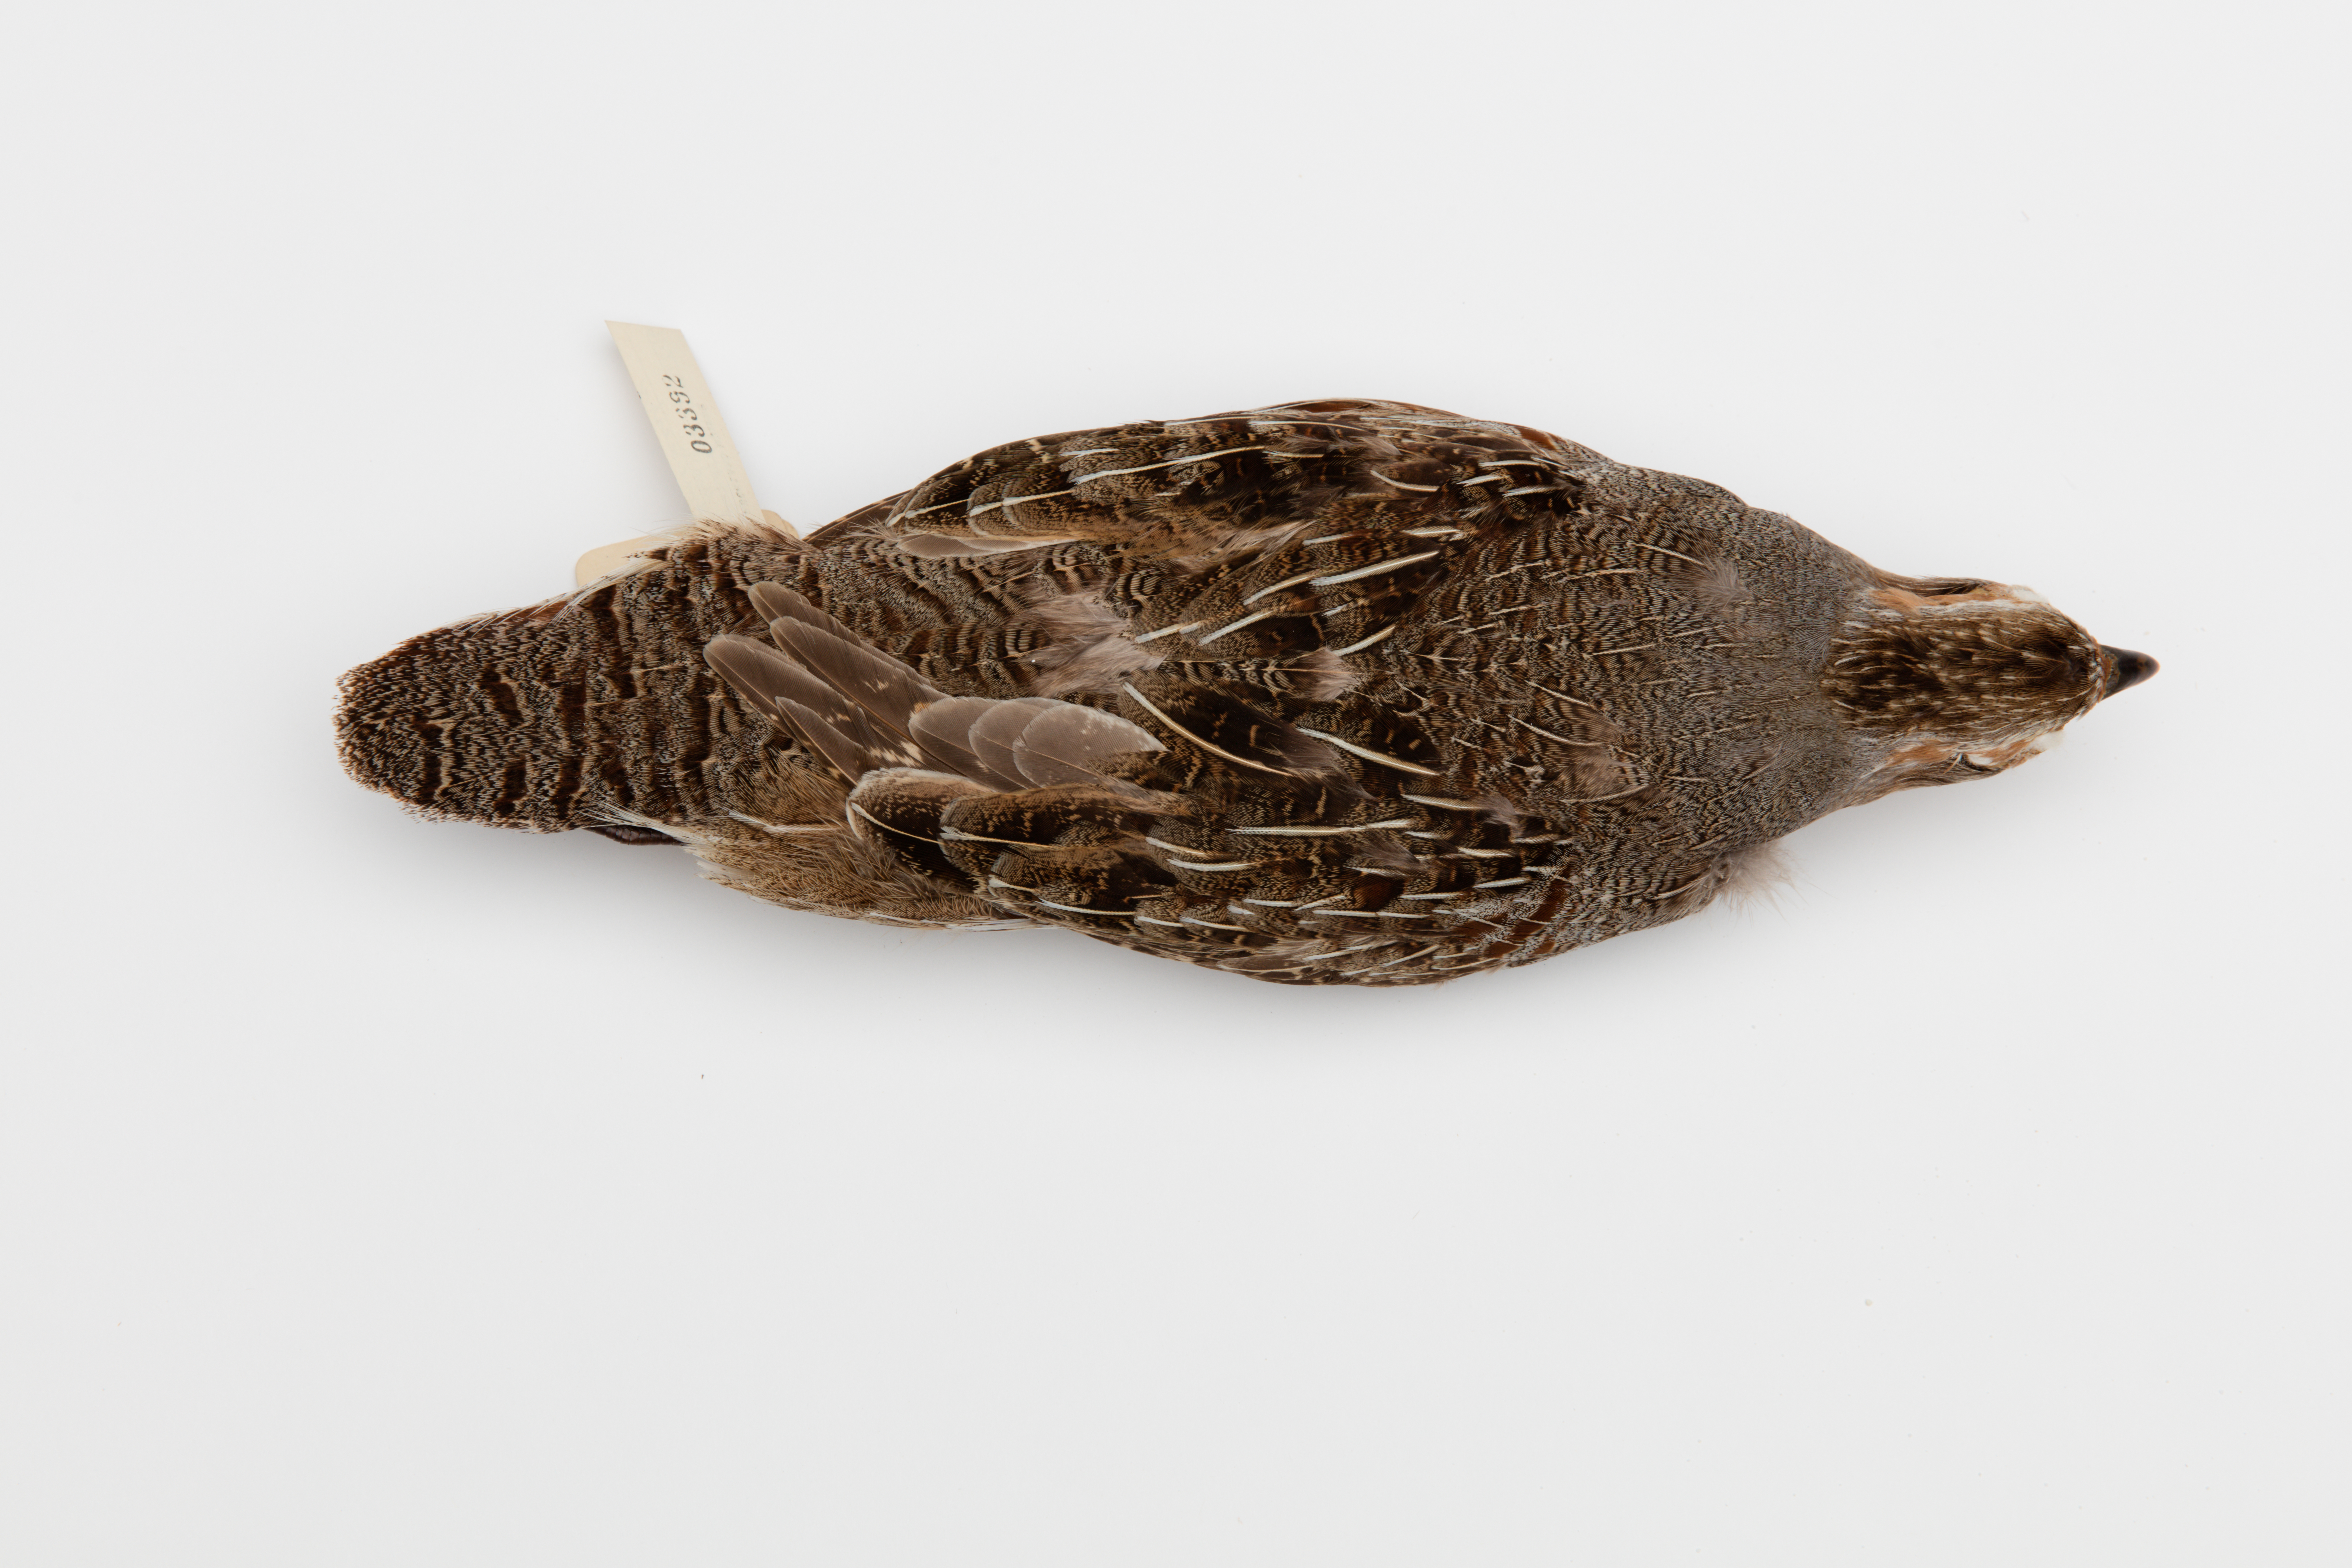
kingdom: Animalia
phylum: Chordata
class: Aves
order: Galliformes
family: Phasianidae
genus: Perdix
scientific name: Perdix perdix
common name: Grey partridge
